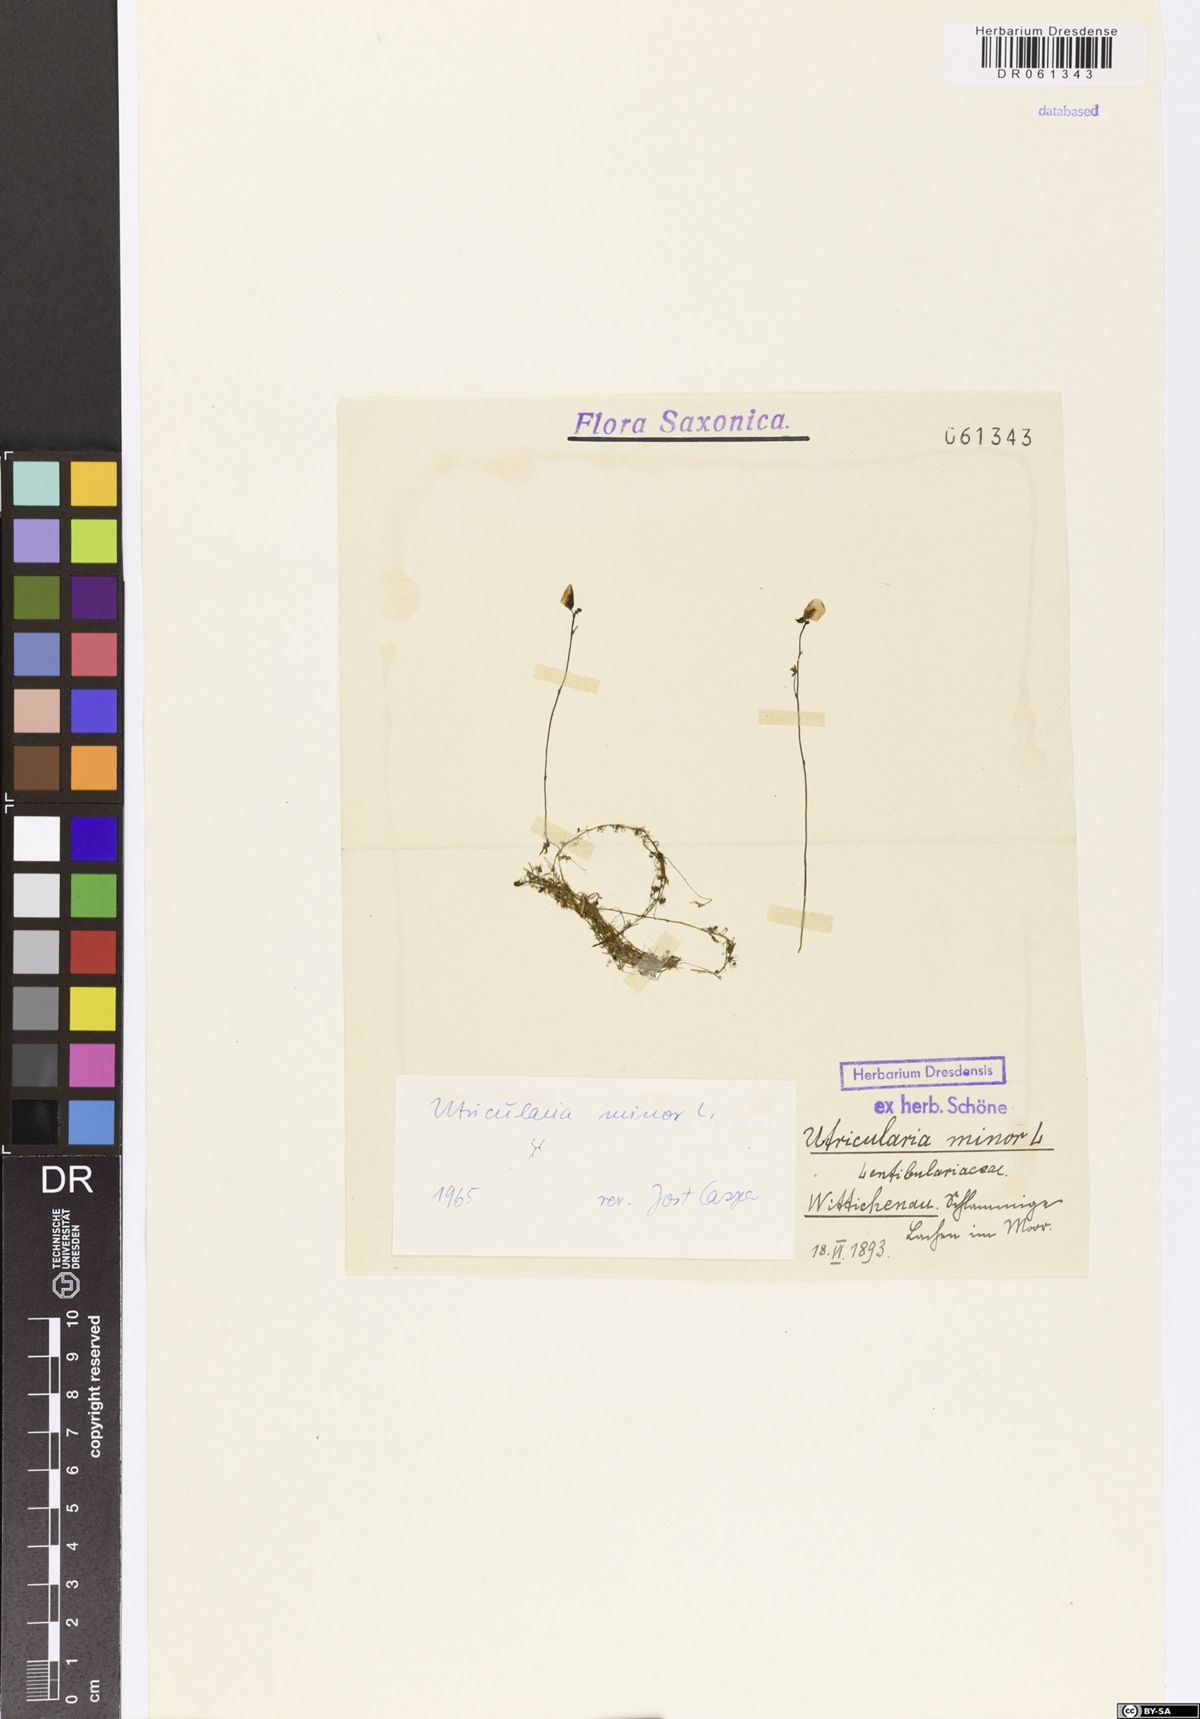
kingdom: Plantae
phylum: Tracheophyta
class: Magnoliopsida
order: Lamiales
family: Lentibulariaceae
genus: Utricularia
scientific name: Utricularia minor
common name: Lesser bladderwort
